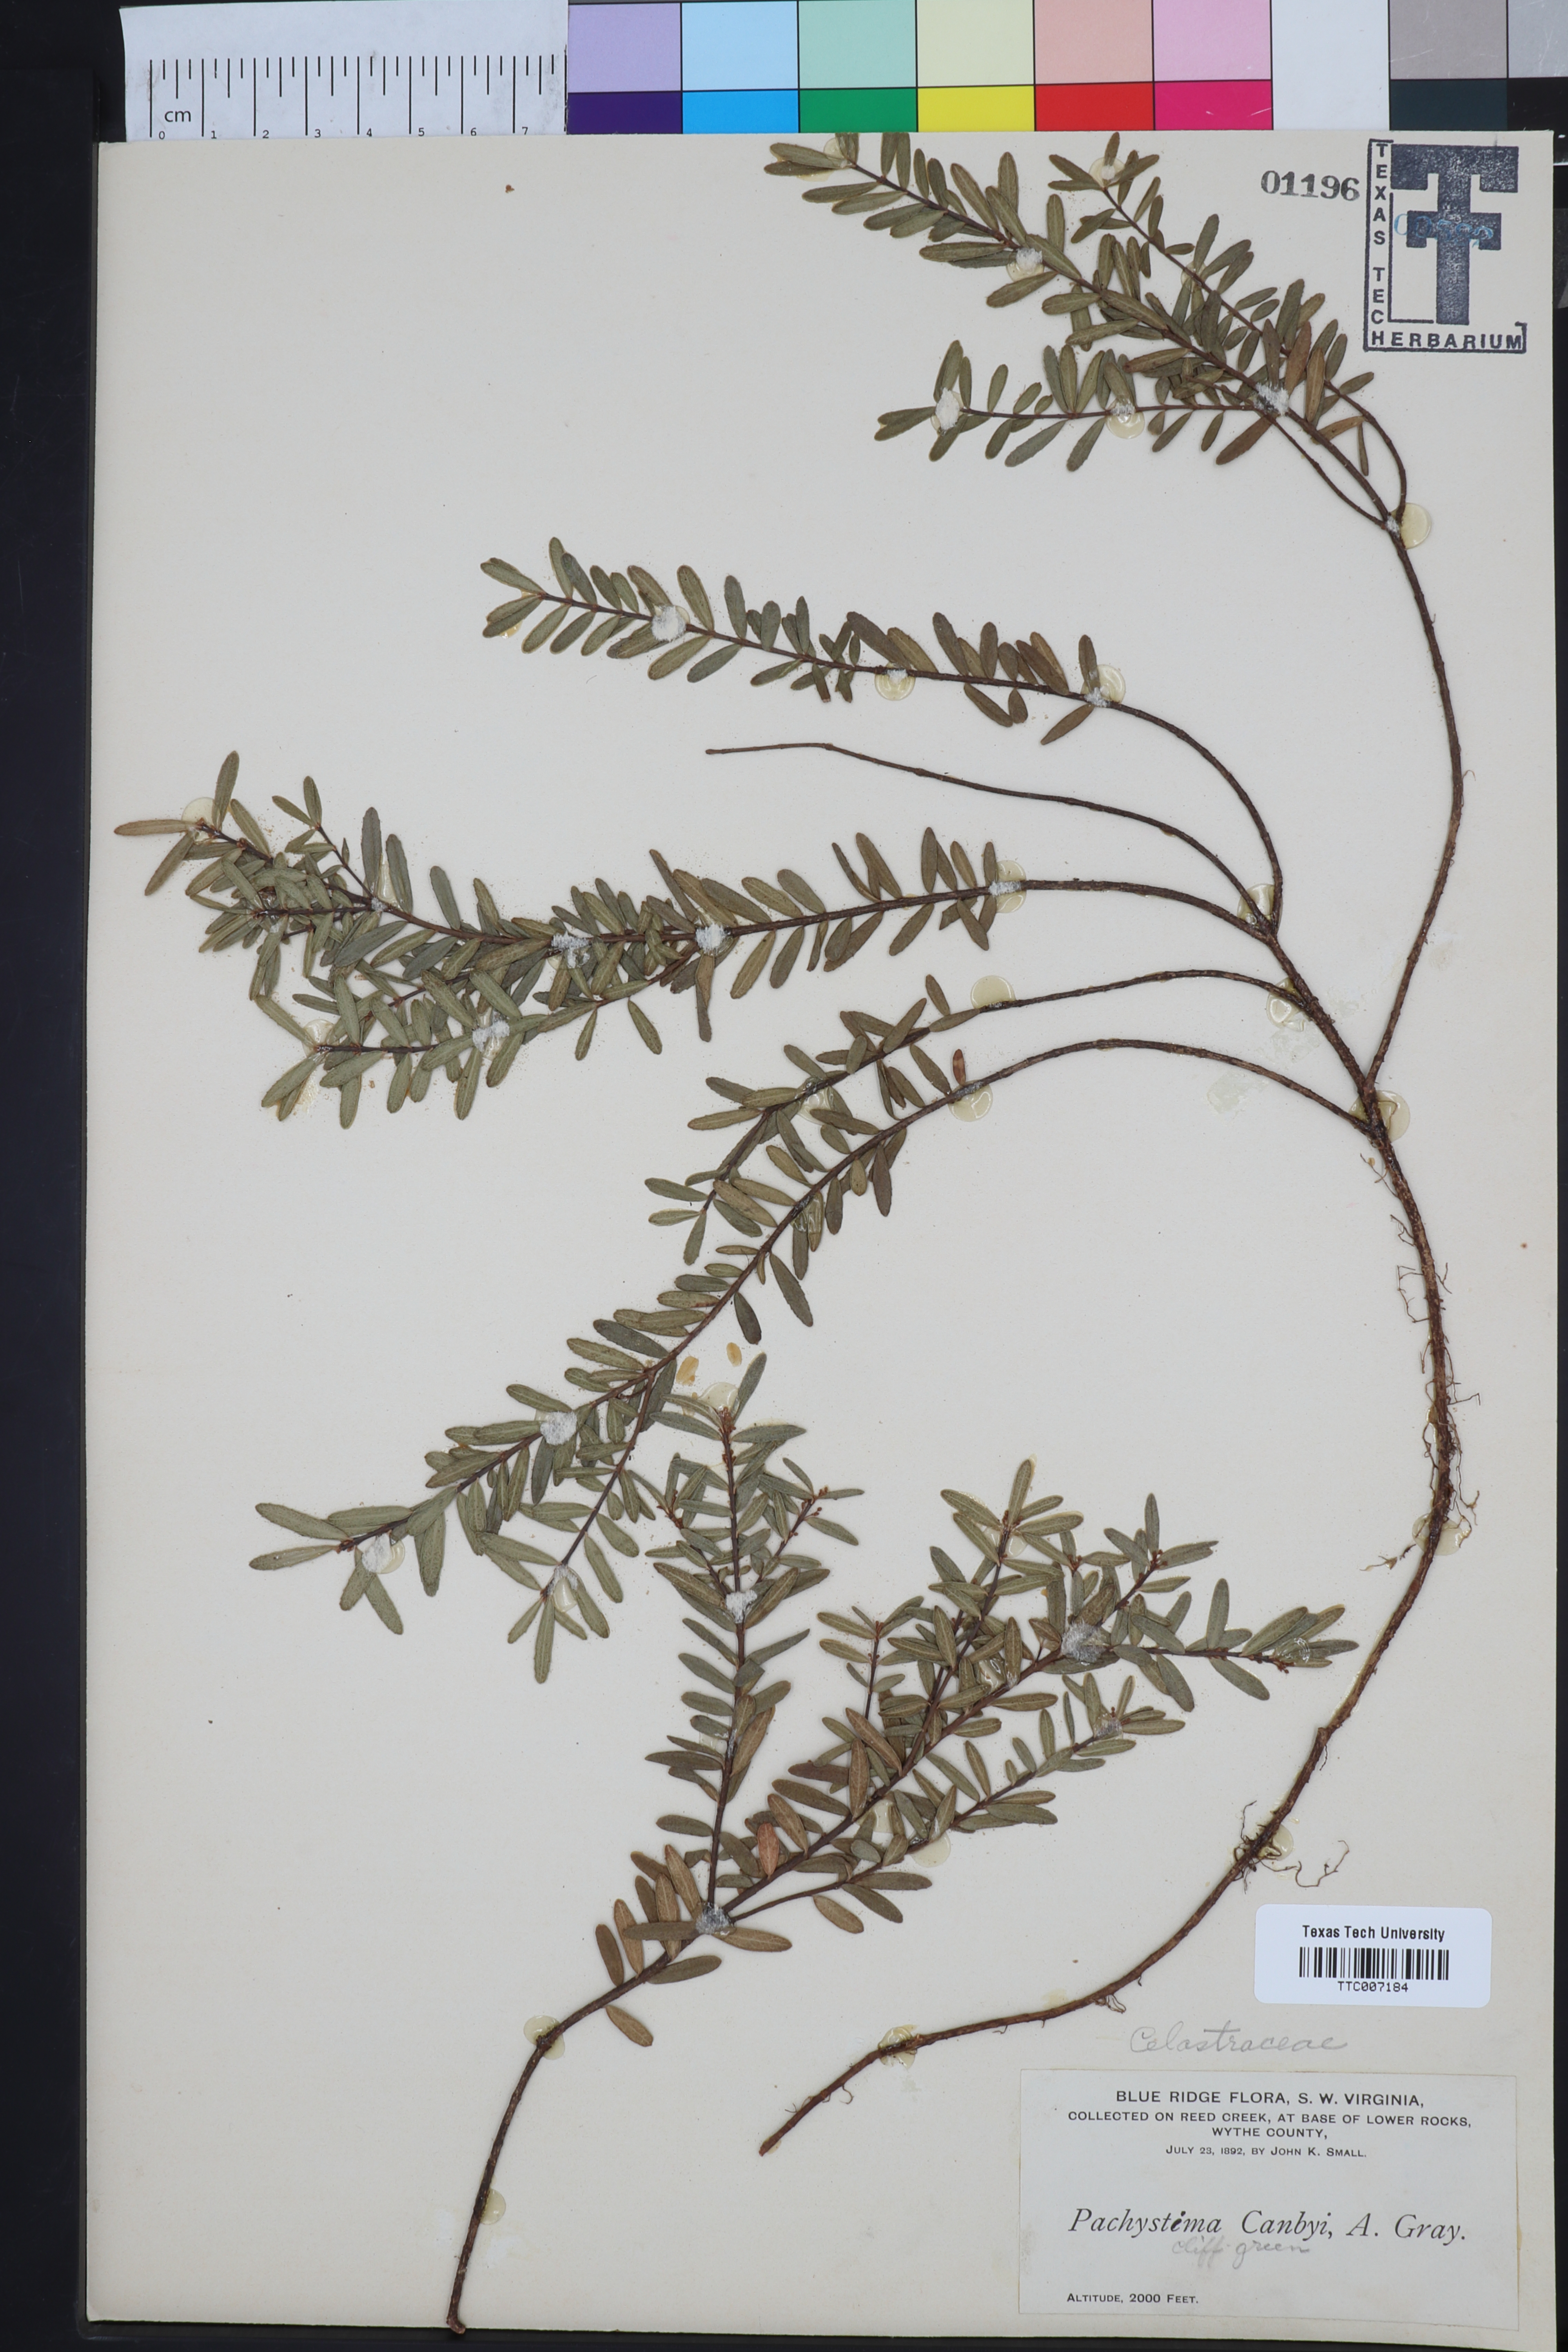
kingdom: Plantae
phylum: Tracheophyta
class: Magnoliopsida
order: Celastrales
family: Celastraceae
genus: Paxistima
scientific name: Paxistima Pachistima canbyi
